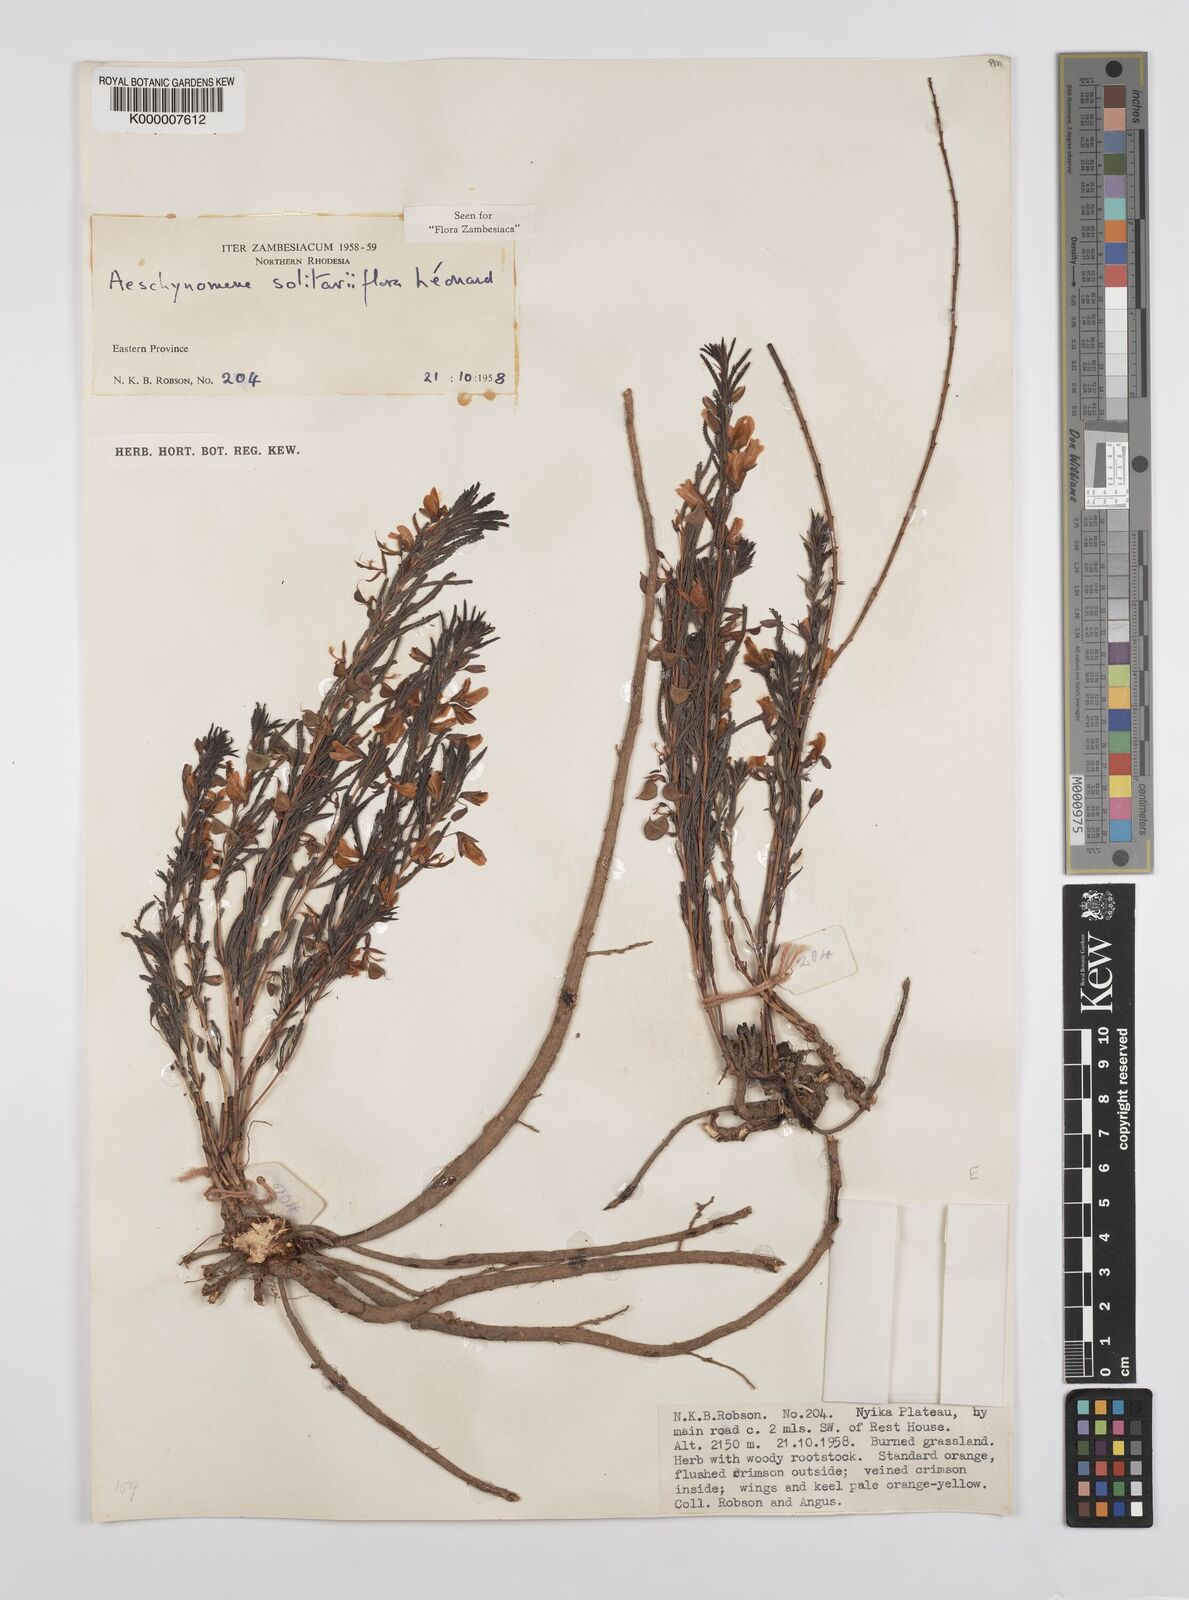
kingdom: Plantae
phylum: Tracheophyta
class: Magnoliopsida
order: Fabales
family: Fabaceae
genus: Aeschynomene
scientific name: Aeschynomene solitariiflora
